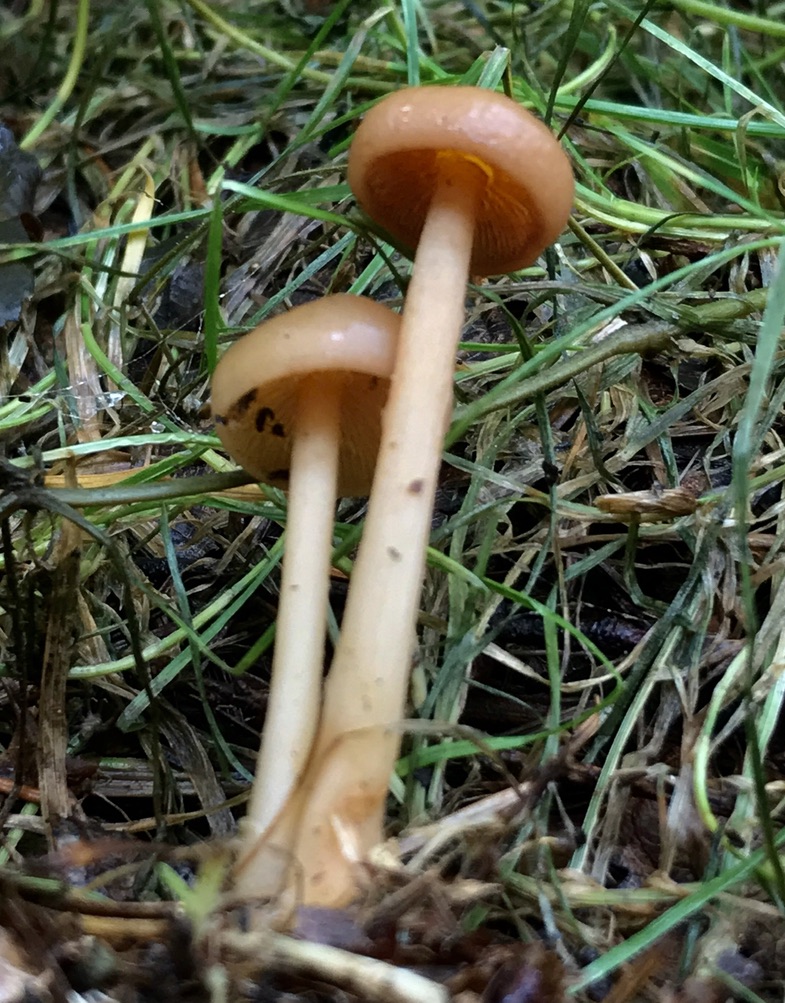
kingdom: Fungi
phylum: Basidiomycota
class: Agaricomycetes
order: Agaricales
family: Omphalotaceae
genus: Collybiopsis
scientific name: Collybiopsis peronata
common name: bestøvlet fladhat
